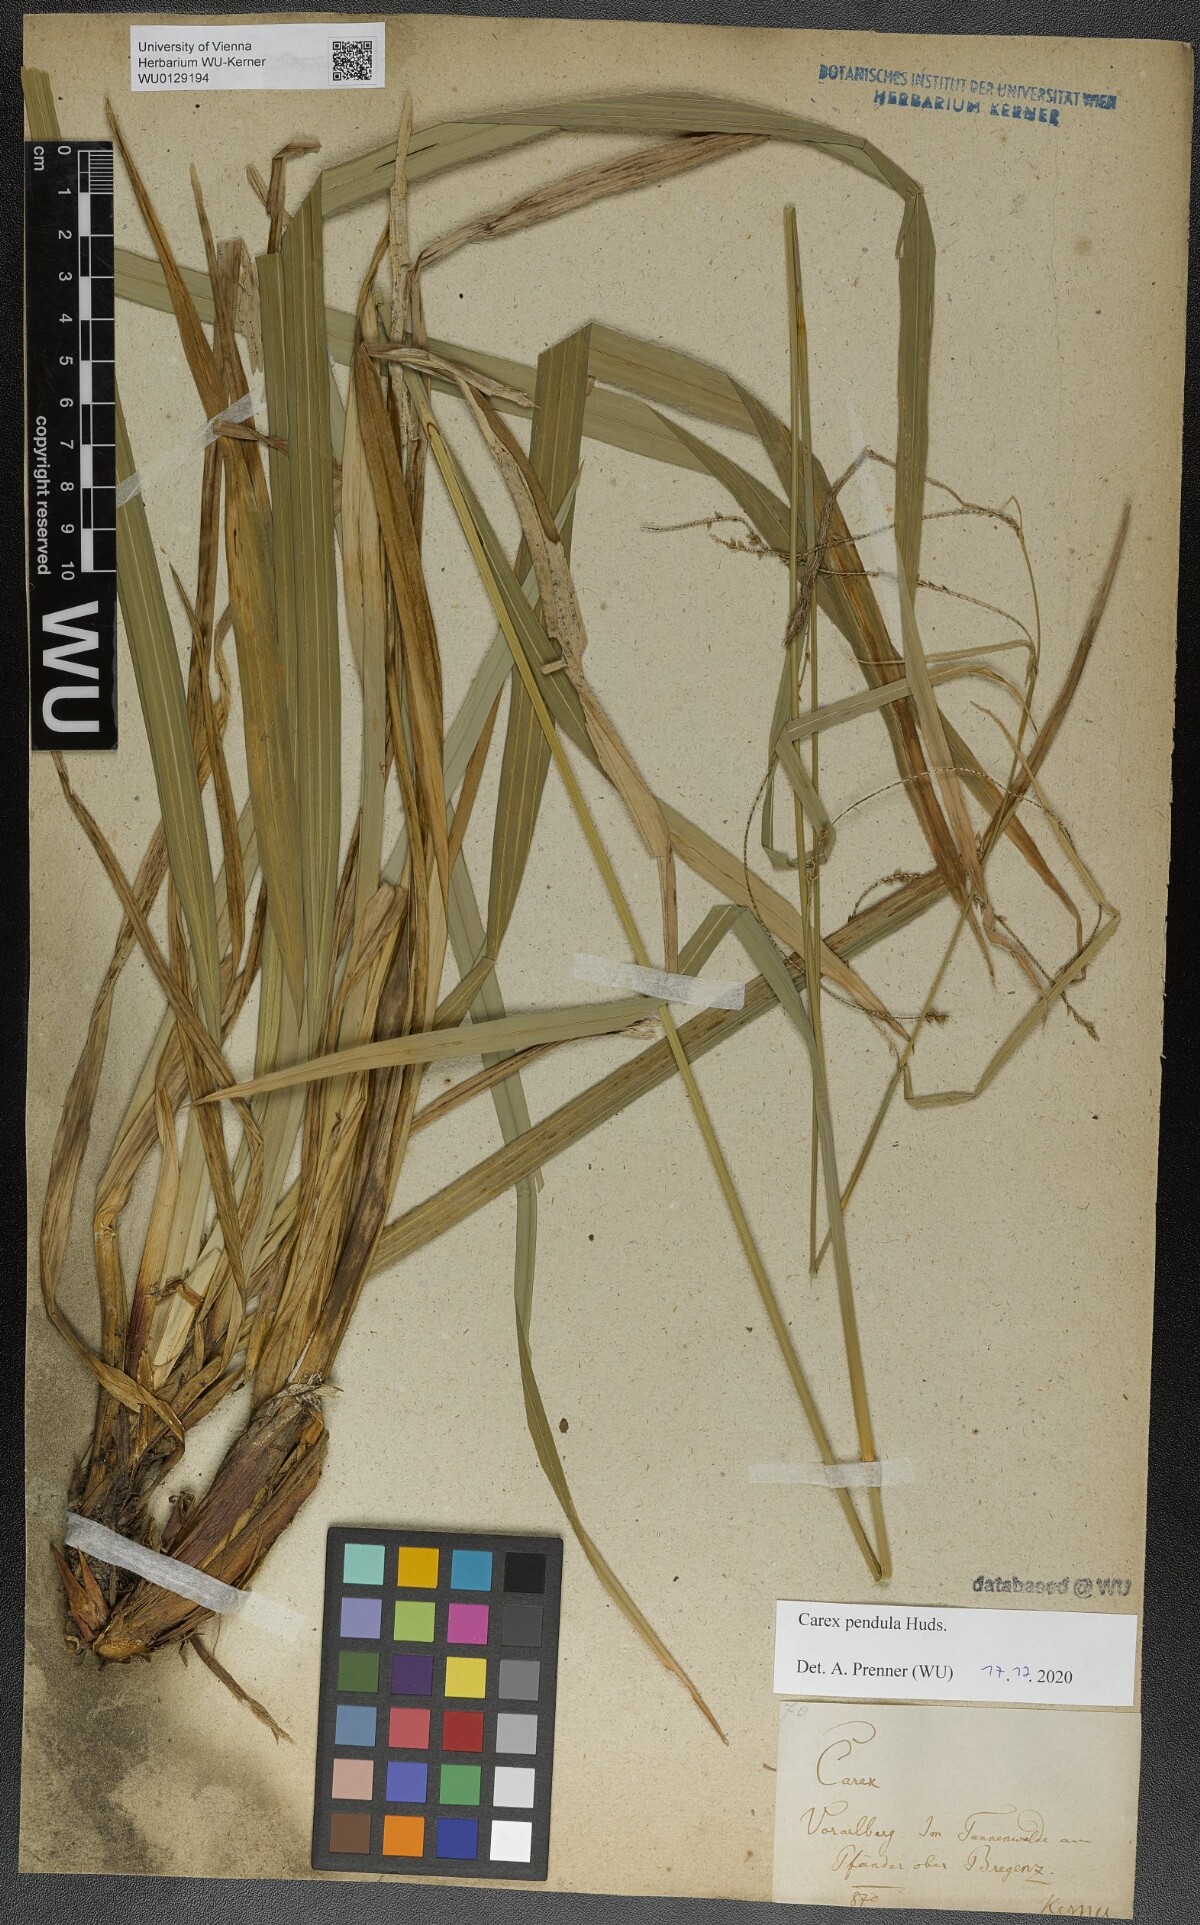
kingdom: Plantae
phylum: Tracheophyta
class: Liliopsida
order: Poales
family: Cyperaceae
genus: Carex
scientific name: Carex pendula
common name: Pendulous sedge
